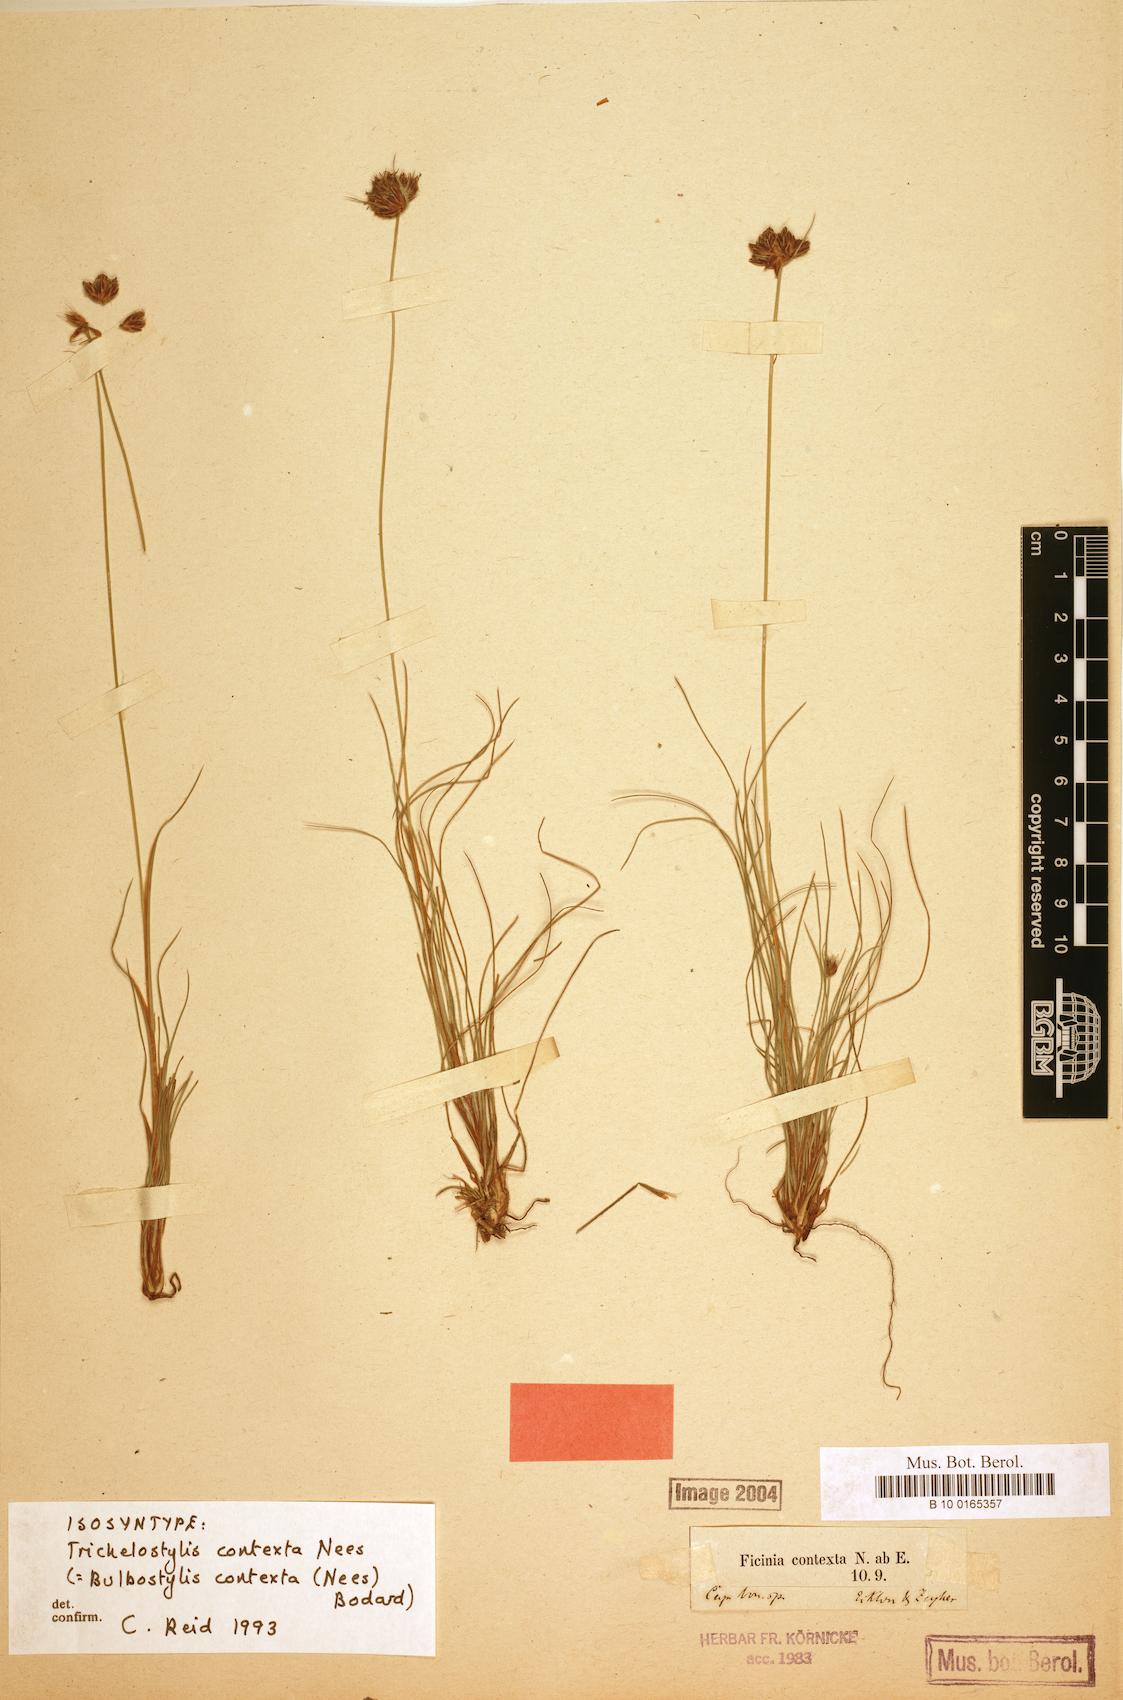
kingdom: Plantae
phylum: Tracheophyta
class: Liliopsida
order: Poales
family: Cyperaceae
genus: Bulbostylis
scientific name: Bulbostylis contexta
